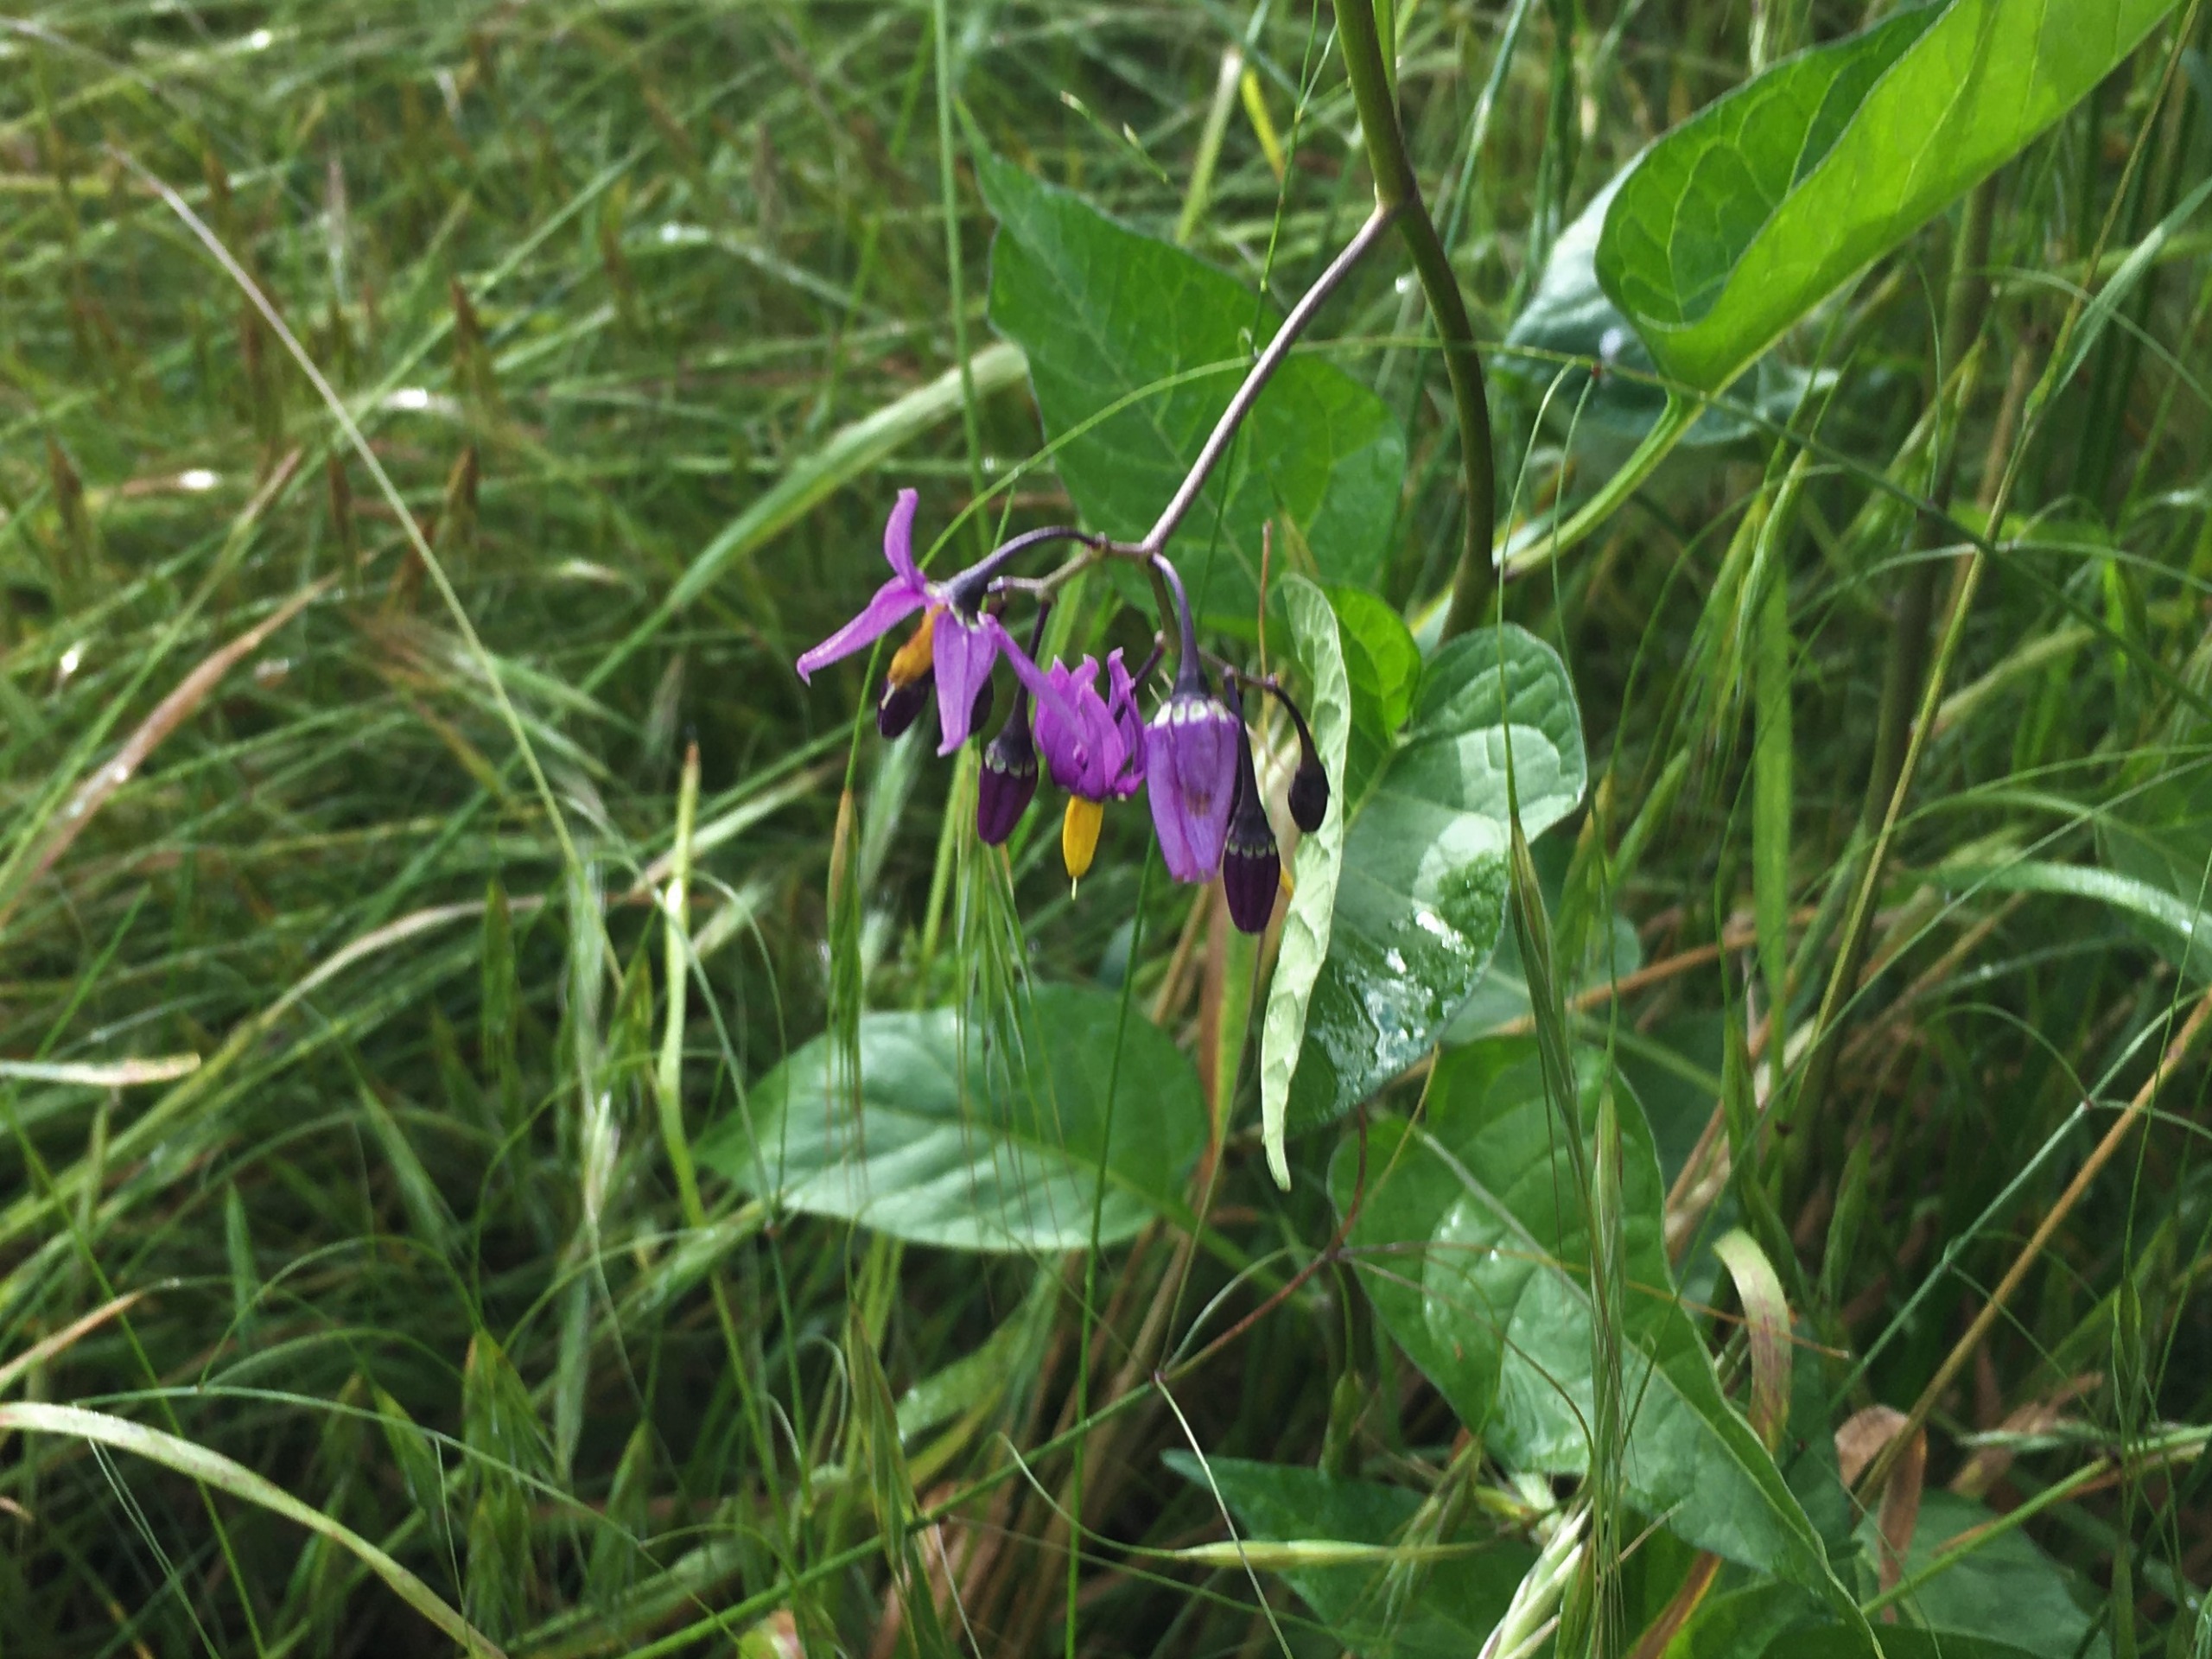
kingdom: Plantae
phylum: Tracheophyta
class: Magnoliopsida
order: Solanales
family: Solanaceae
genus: Solanum
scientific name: Solanum dulcamara
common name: Bittersød natskygge
